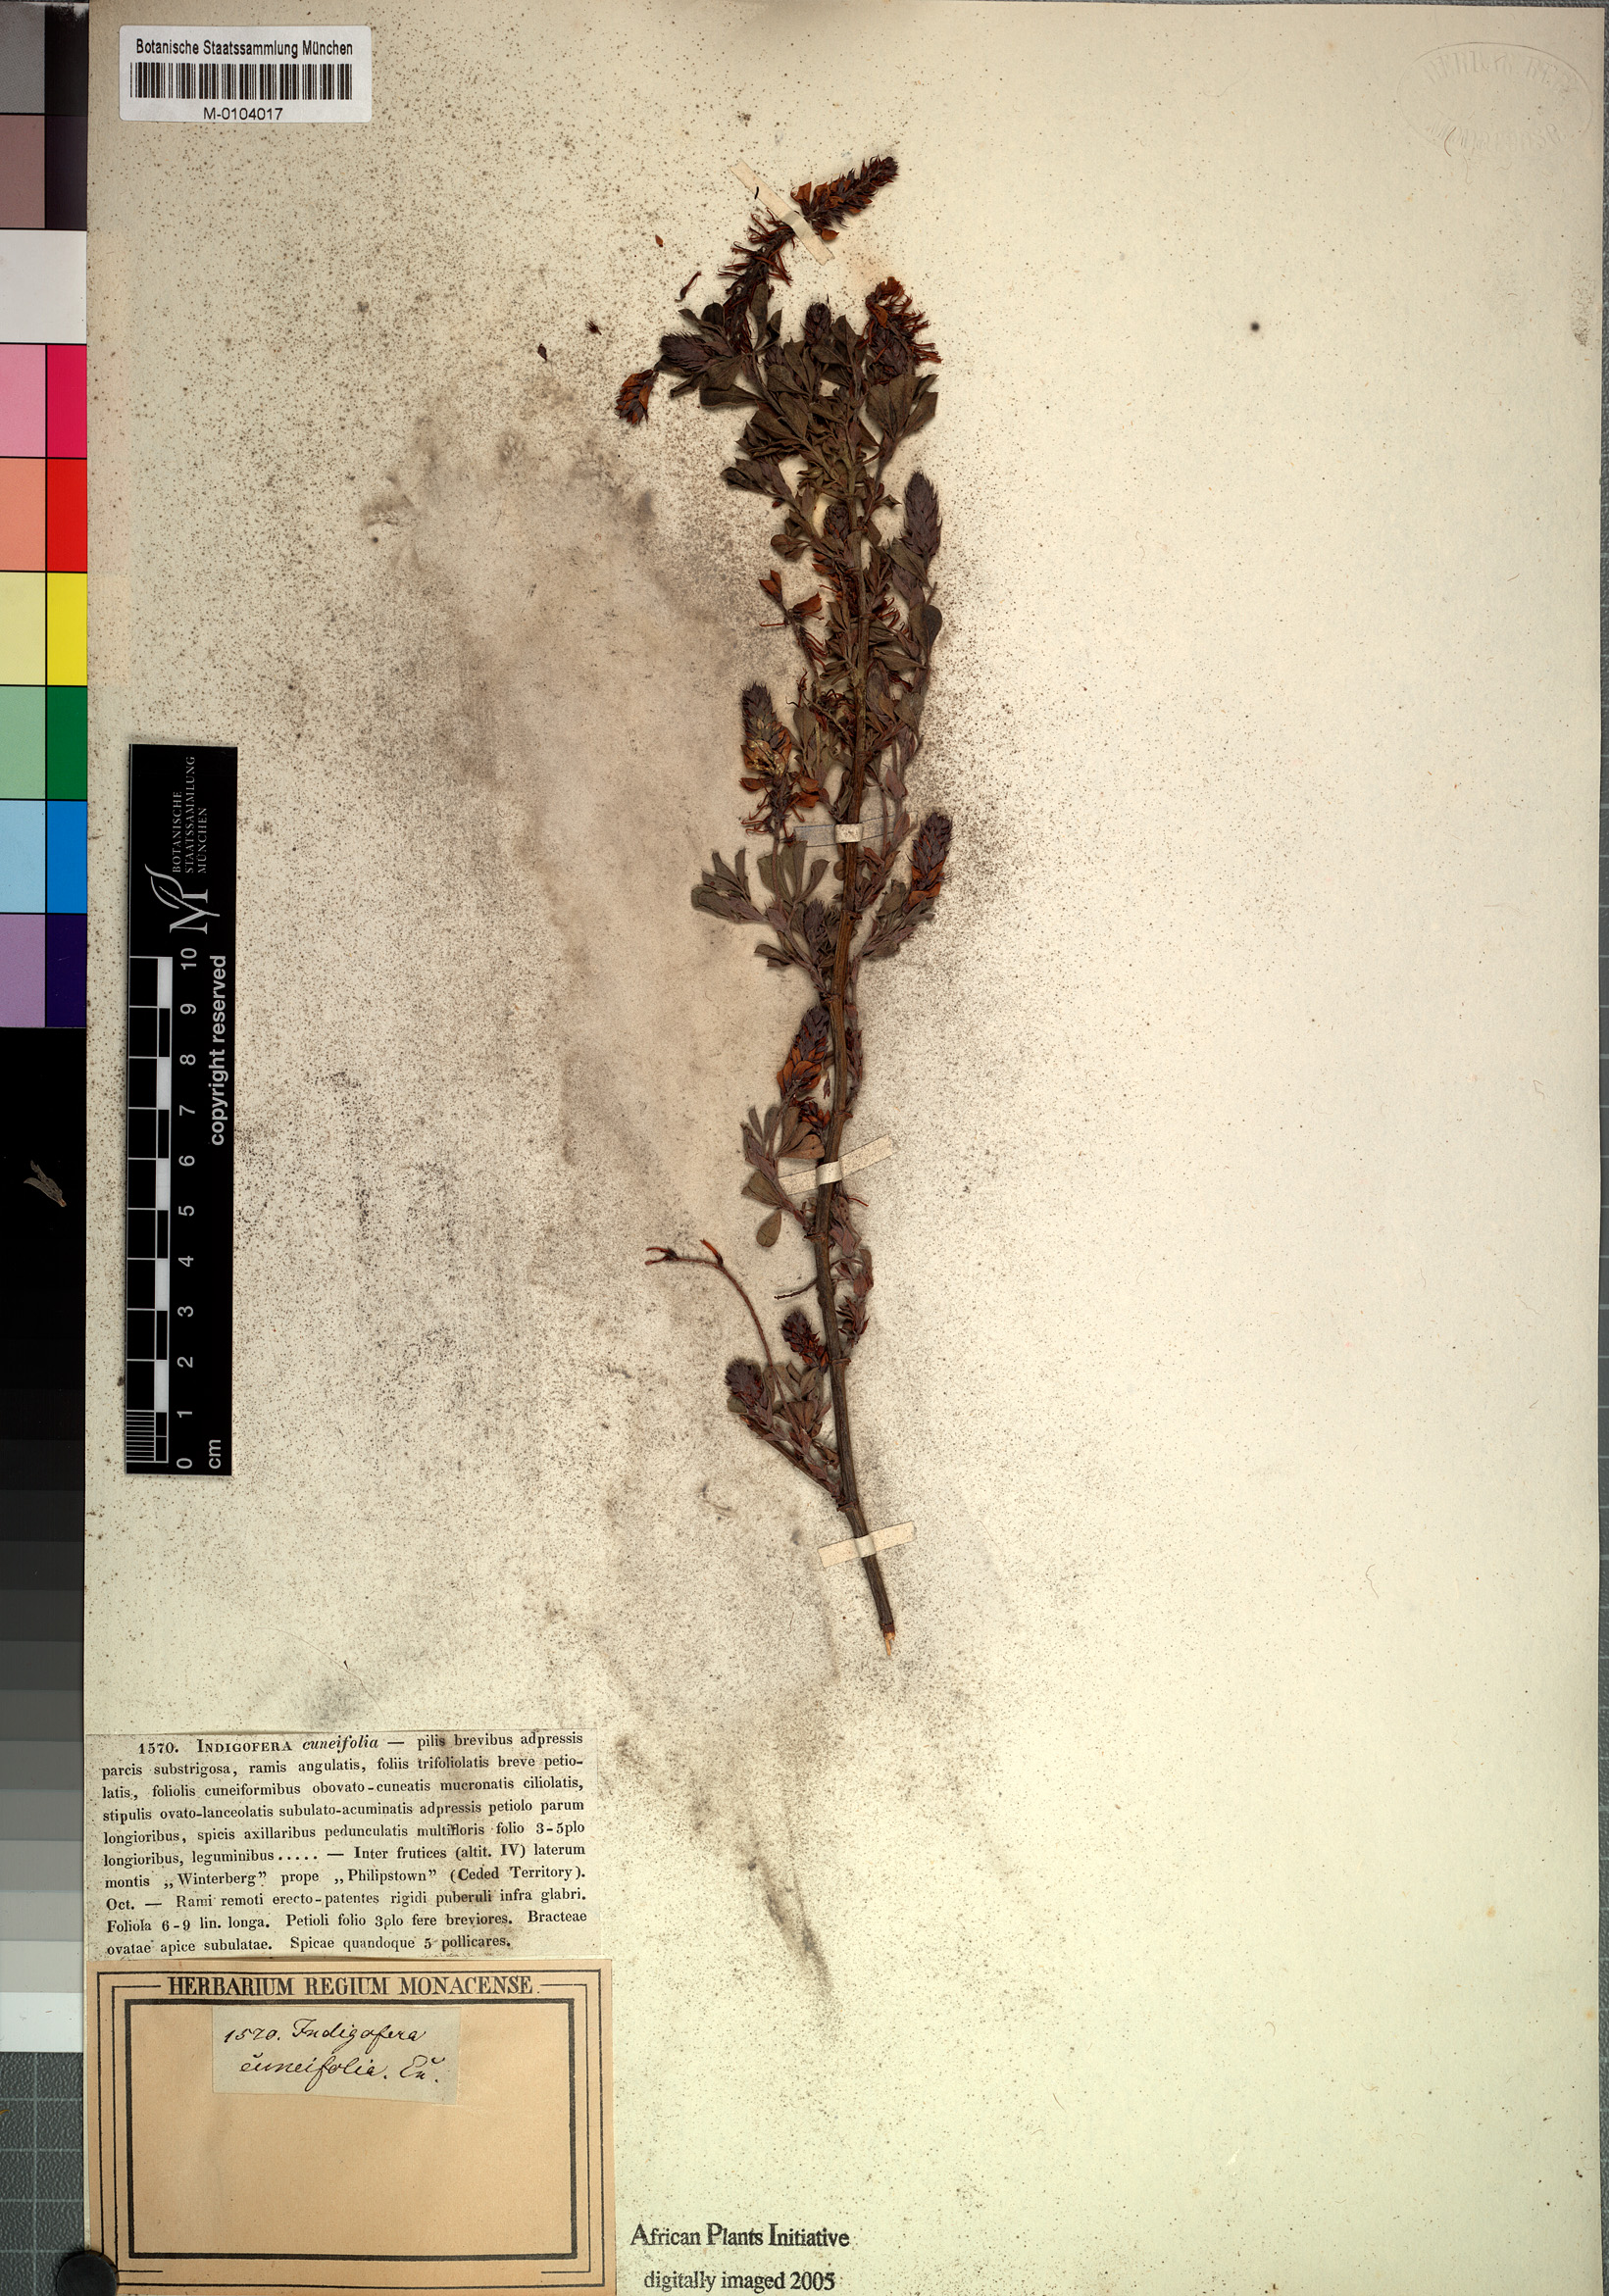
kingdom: Plantae
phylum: Tracheophyta
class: Magnoliopsida
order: Fabales
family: Fabaceae
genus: Indigofera
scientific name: Indigofera cuneifolia
